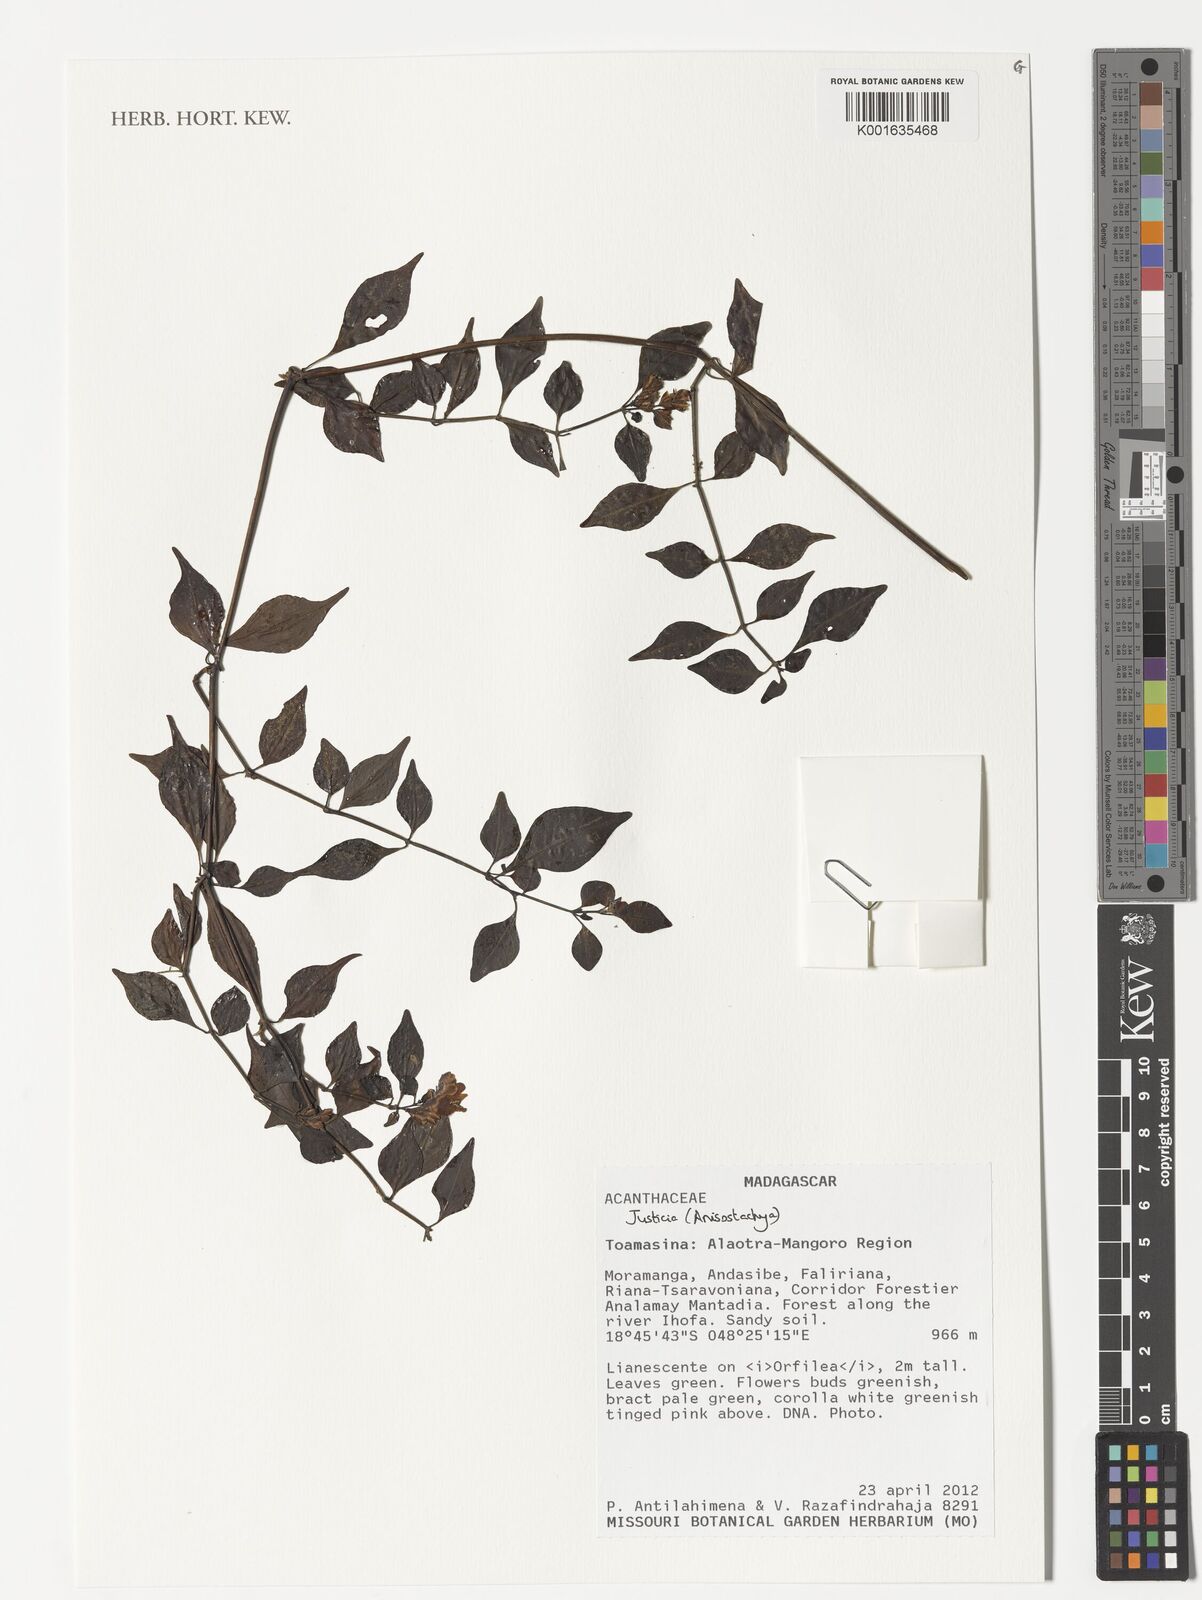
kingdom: Plantae
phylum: Tracheophyta
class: Magnoliopsida
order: Lamiales
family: Acanthaceae
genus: Justicia
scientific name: Justicia
